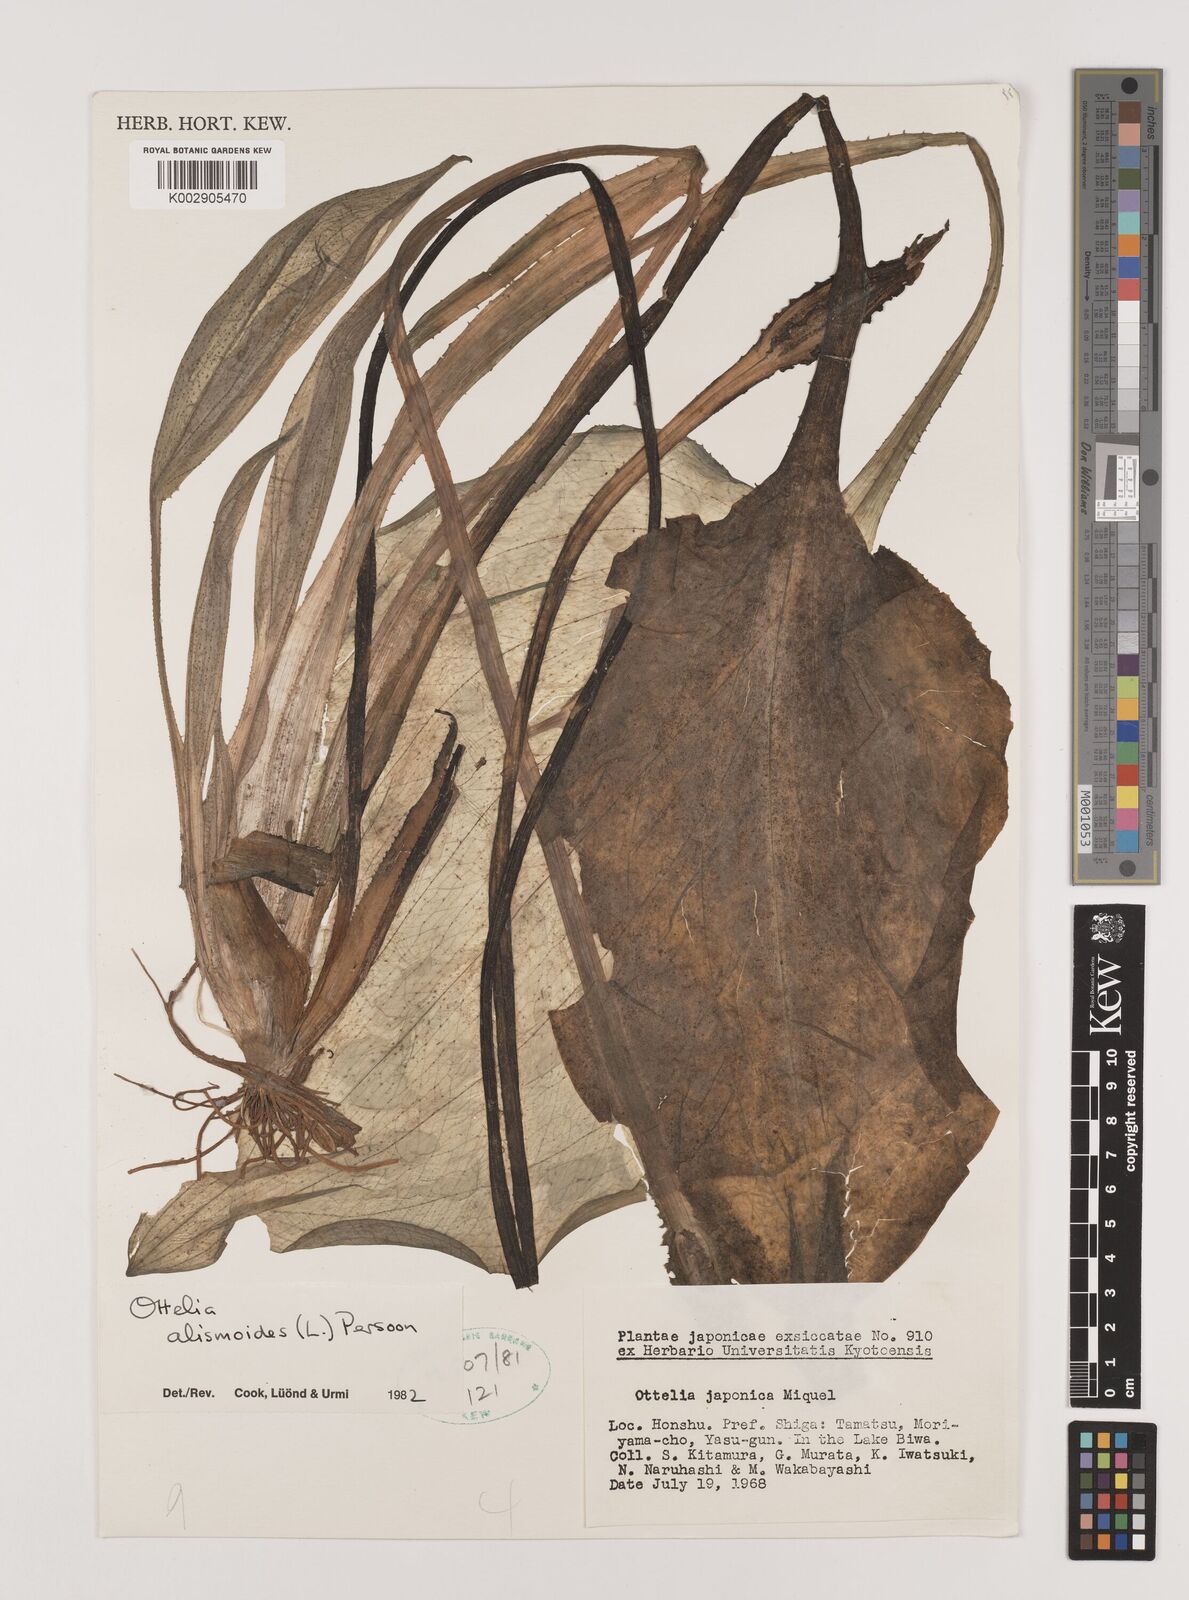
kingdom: Plantae
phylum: Tracheophyta
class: Liliopsida
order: Alismatales
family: Hydrocharitaceae
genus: Ottelia
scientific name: Ottelia alismoides
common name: Duck-lettuce
